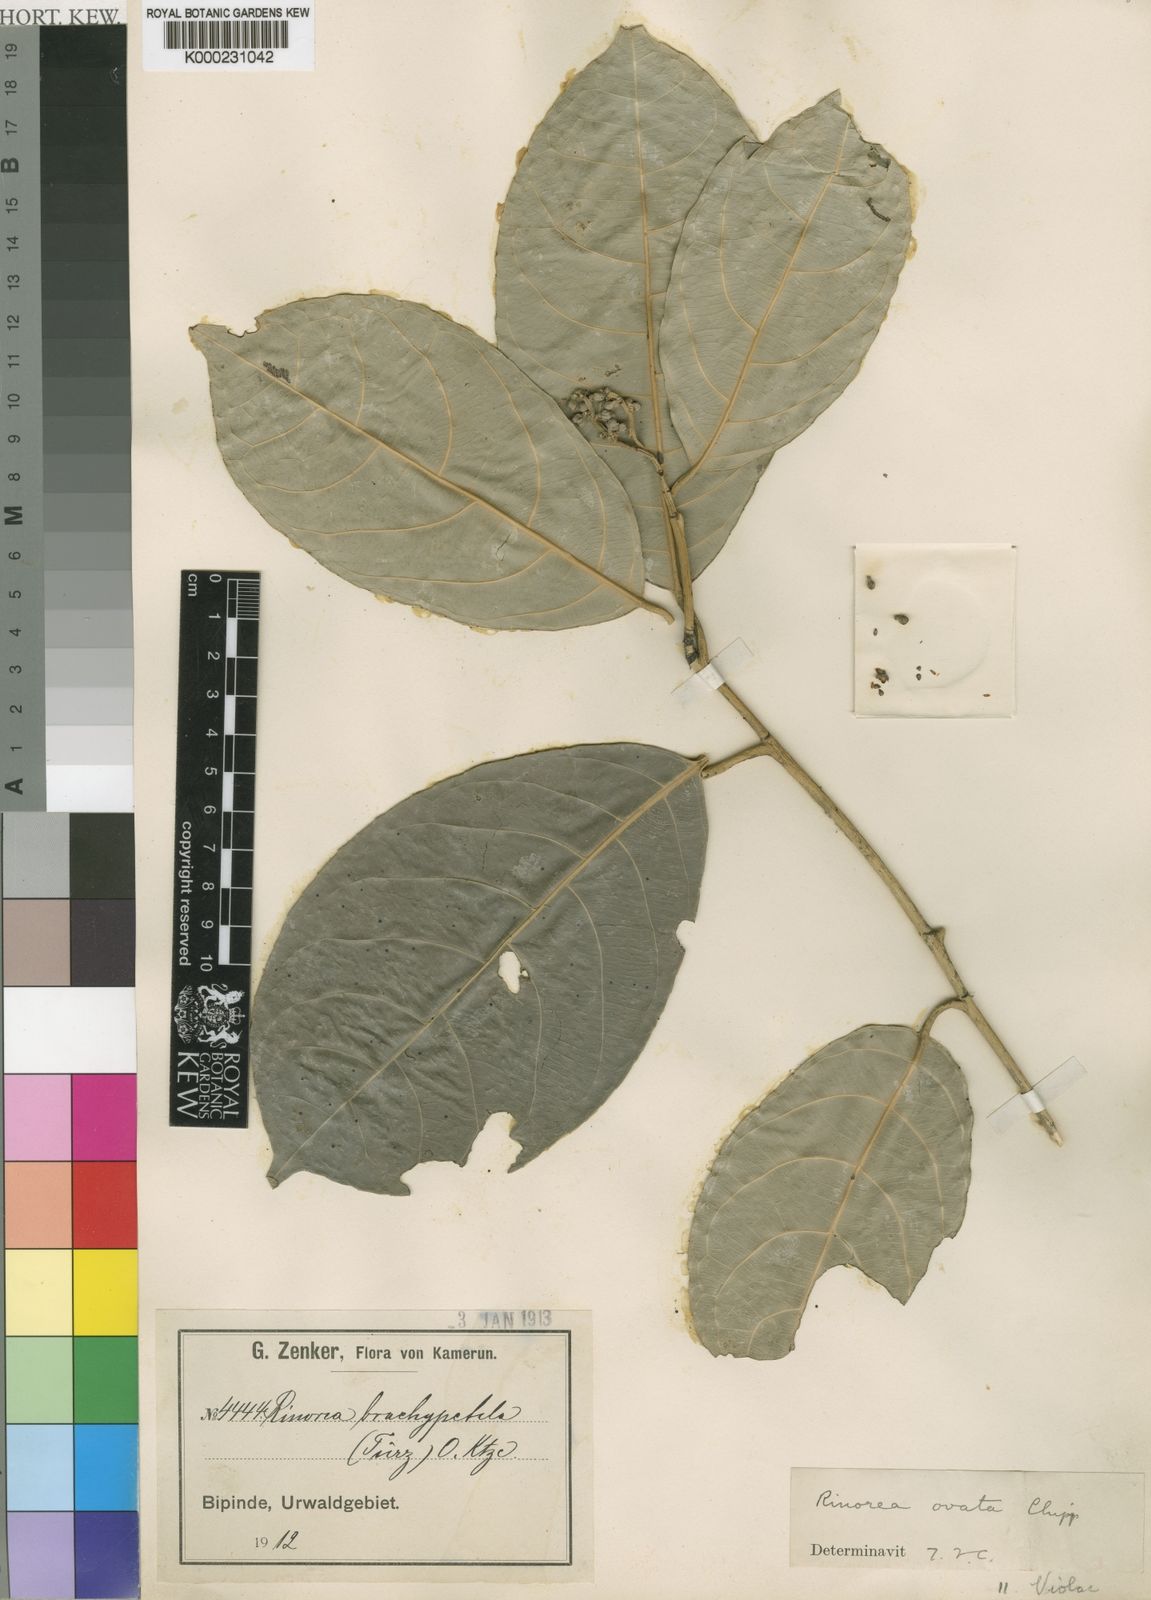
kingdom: Plantae
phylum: Tracheophyta
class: Magnoliopsida
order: Malpighiales
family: Violaceae
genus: Rinorea
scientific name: Rinorea ovata
